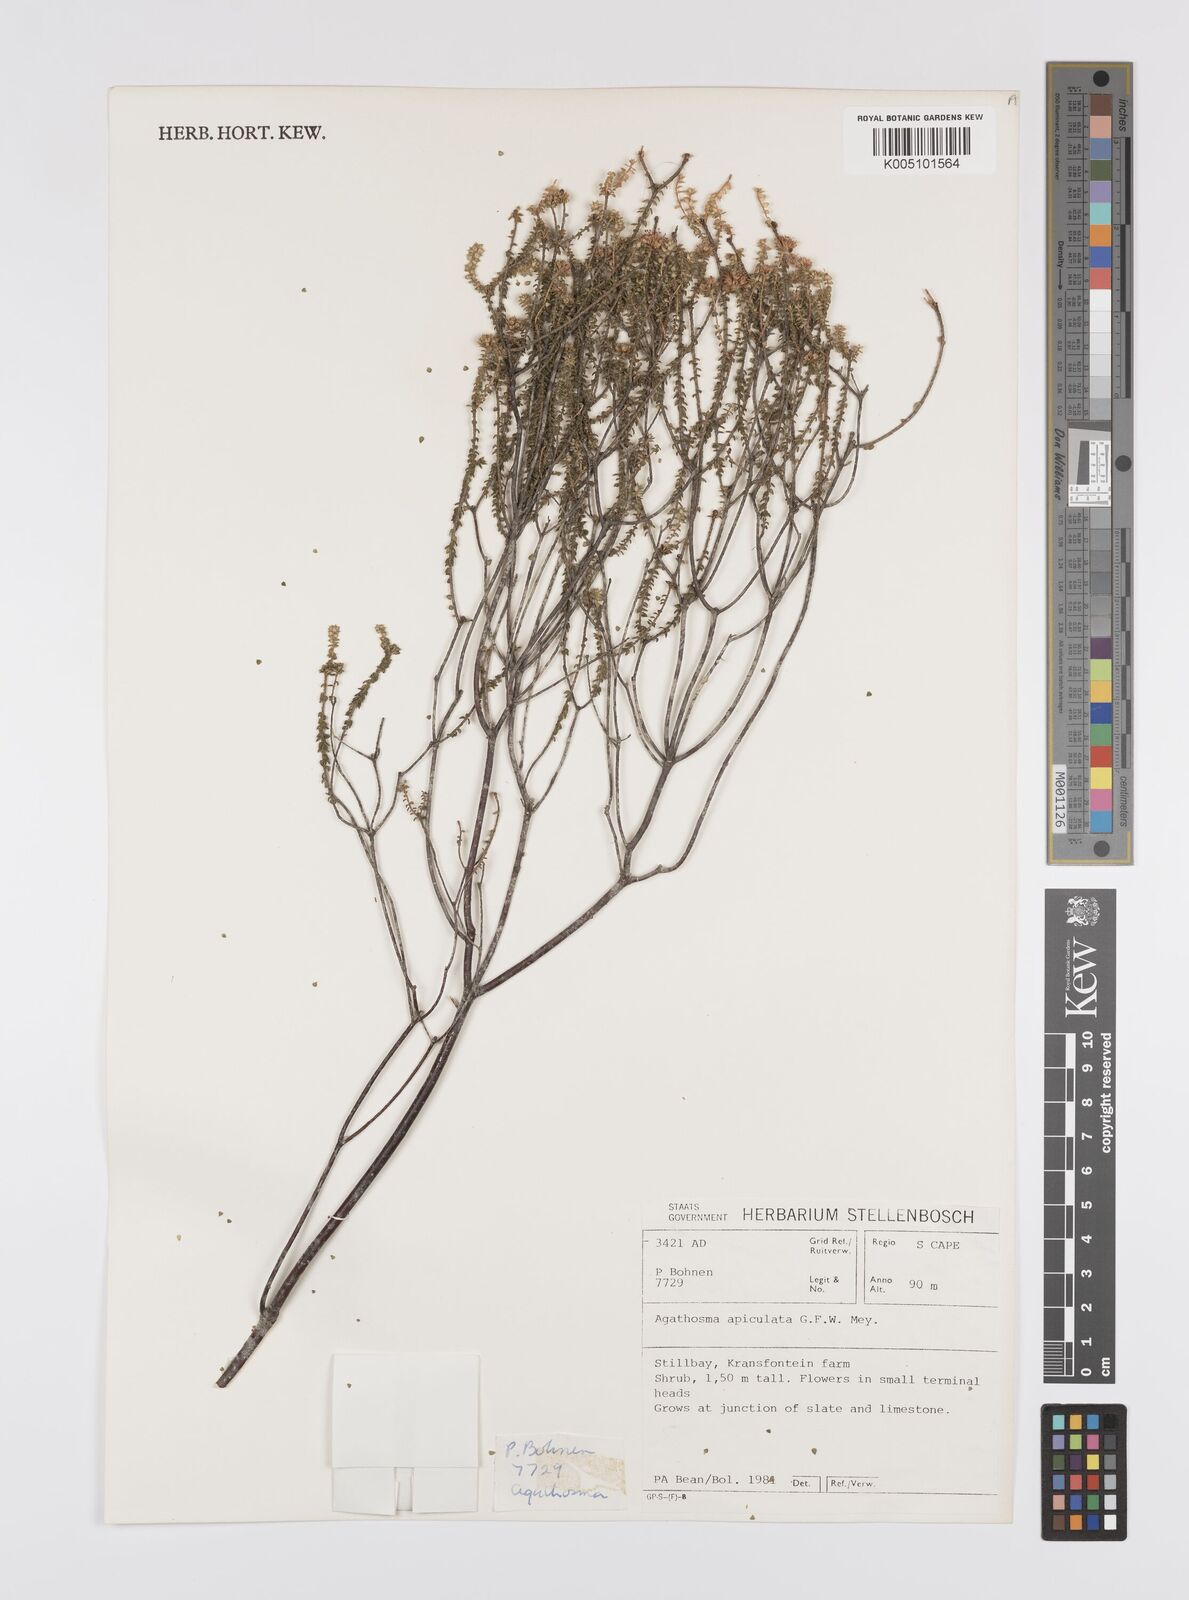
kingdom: Plantae
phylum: Tracheophyta
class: Magnoliopsida
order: Sapindales
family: Rutaceae
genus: Agathosma
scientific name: Agathosma
